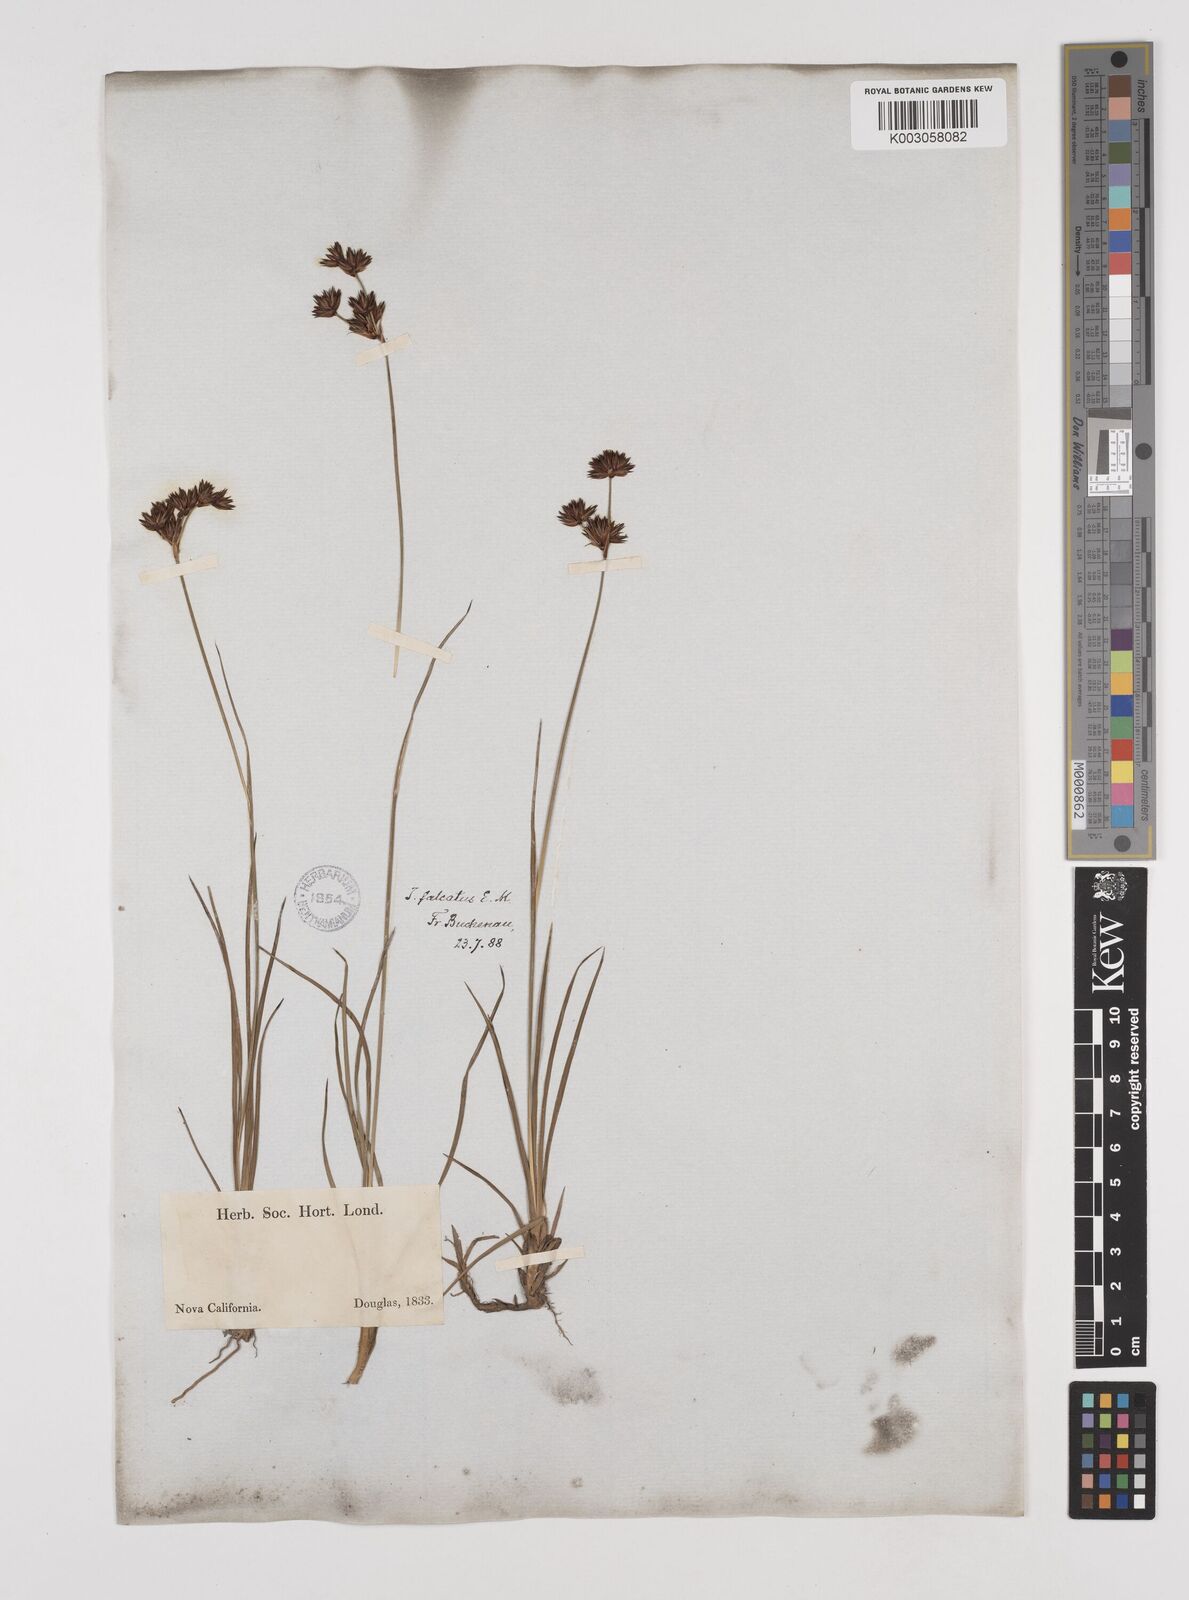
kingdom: Plantae
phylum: Tracheophyta
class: Liliopsida
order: Poales
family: Juncaceae
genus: Juncus
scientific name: Juncus falcatus
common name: Sickle-leaf rush
